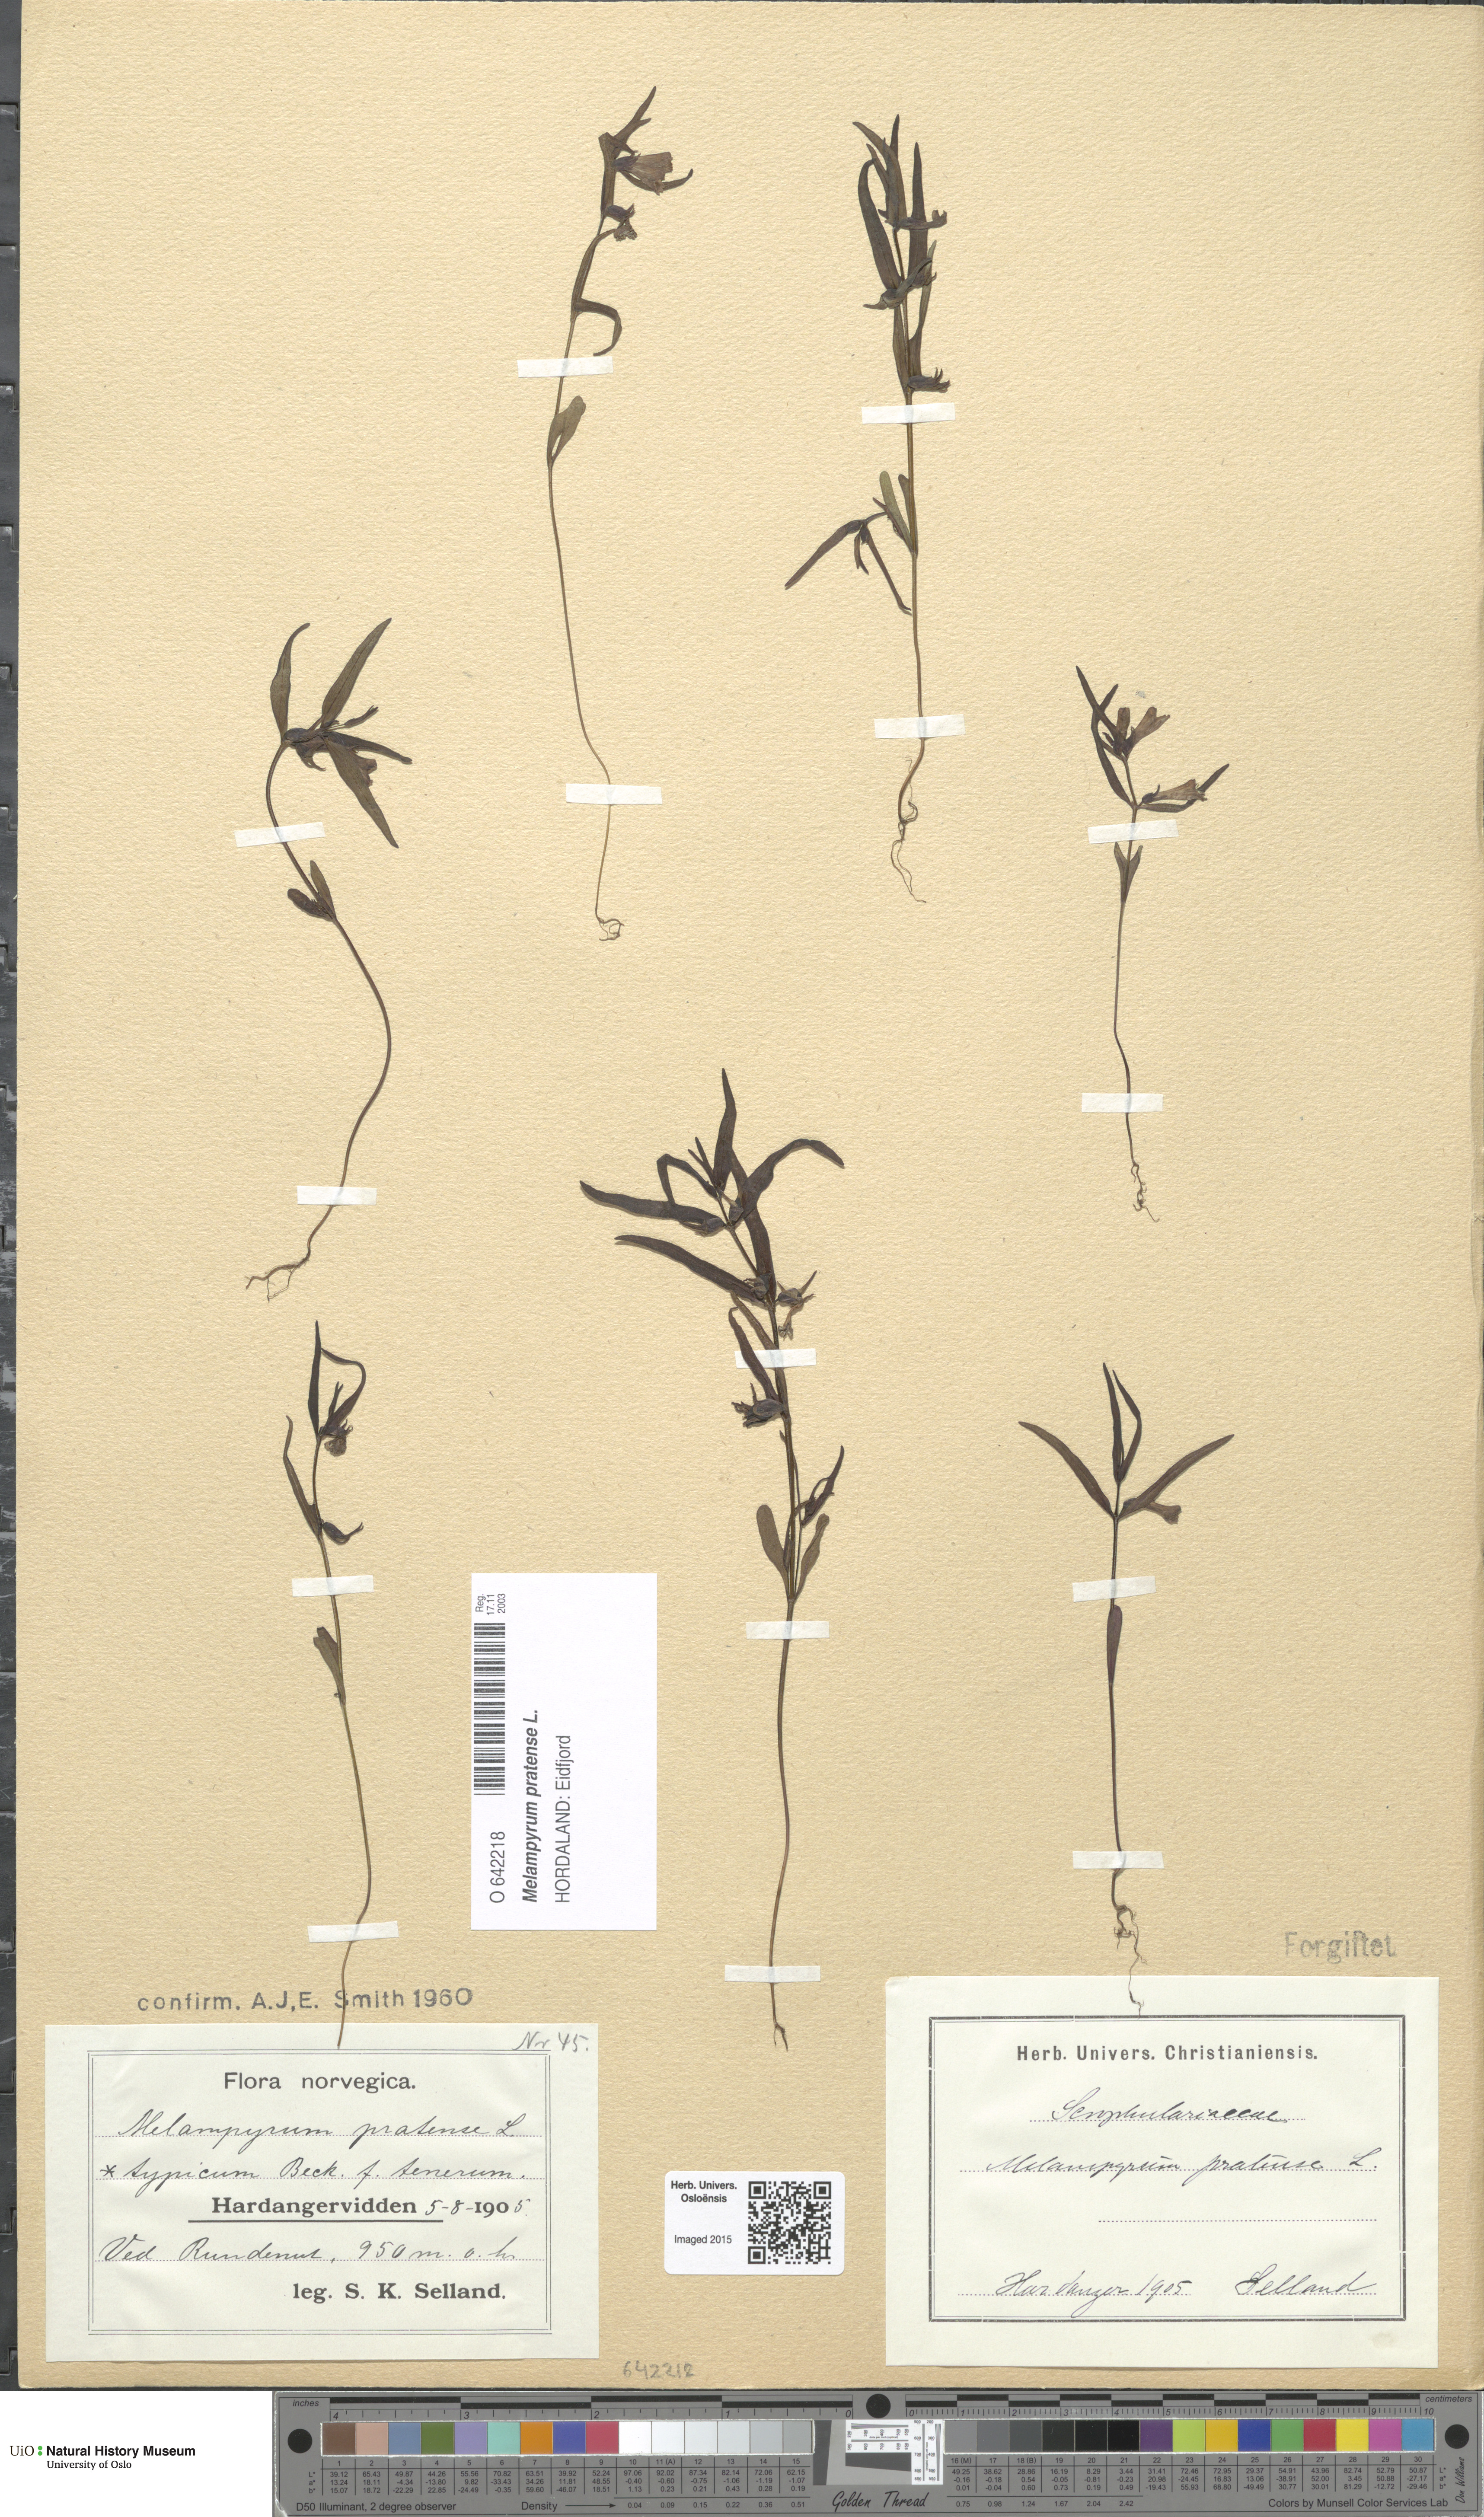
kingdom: Plantae
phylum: Tracheophyta
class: Magnoliopsida
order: Lamiales
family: Orobanchaceae
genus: Melampyrum
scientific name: Melampyrum pratense
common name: Common cow-wheat
